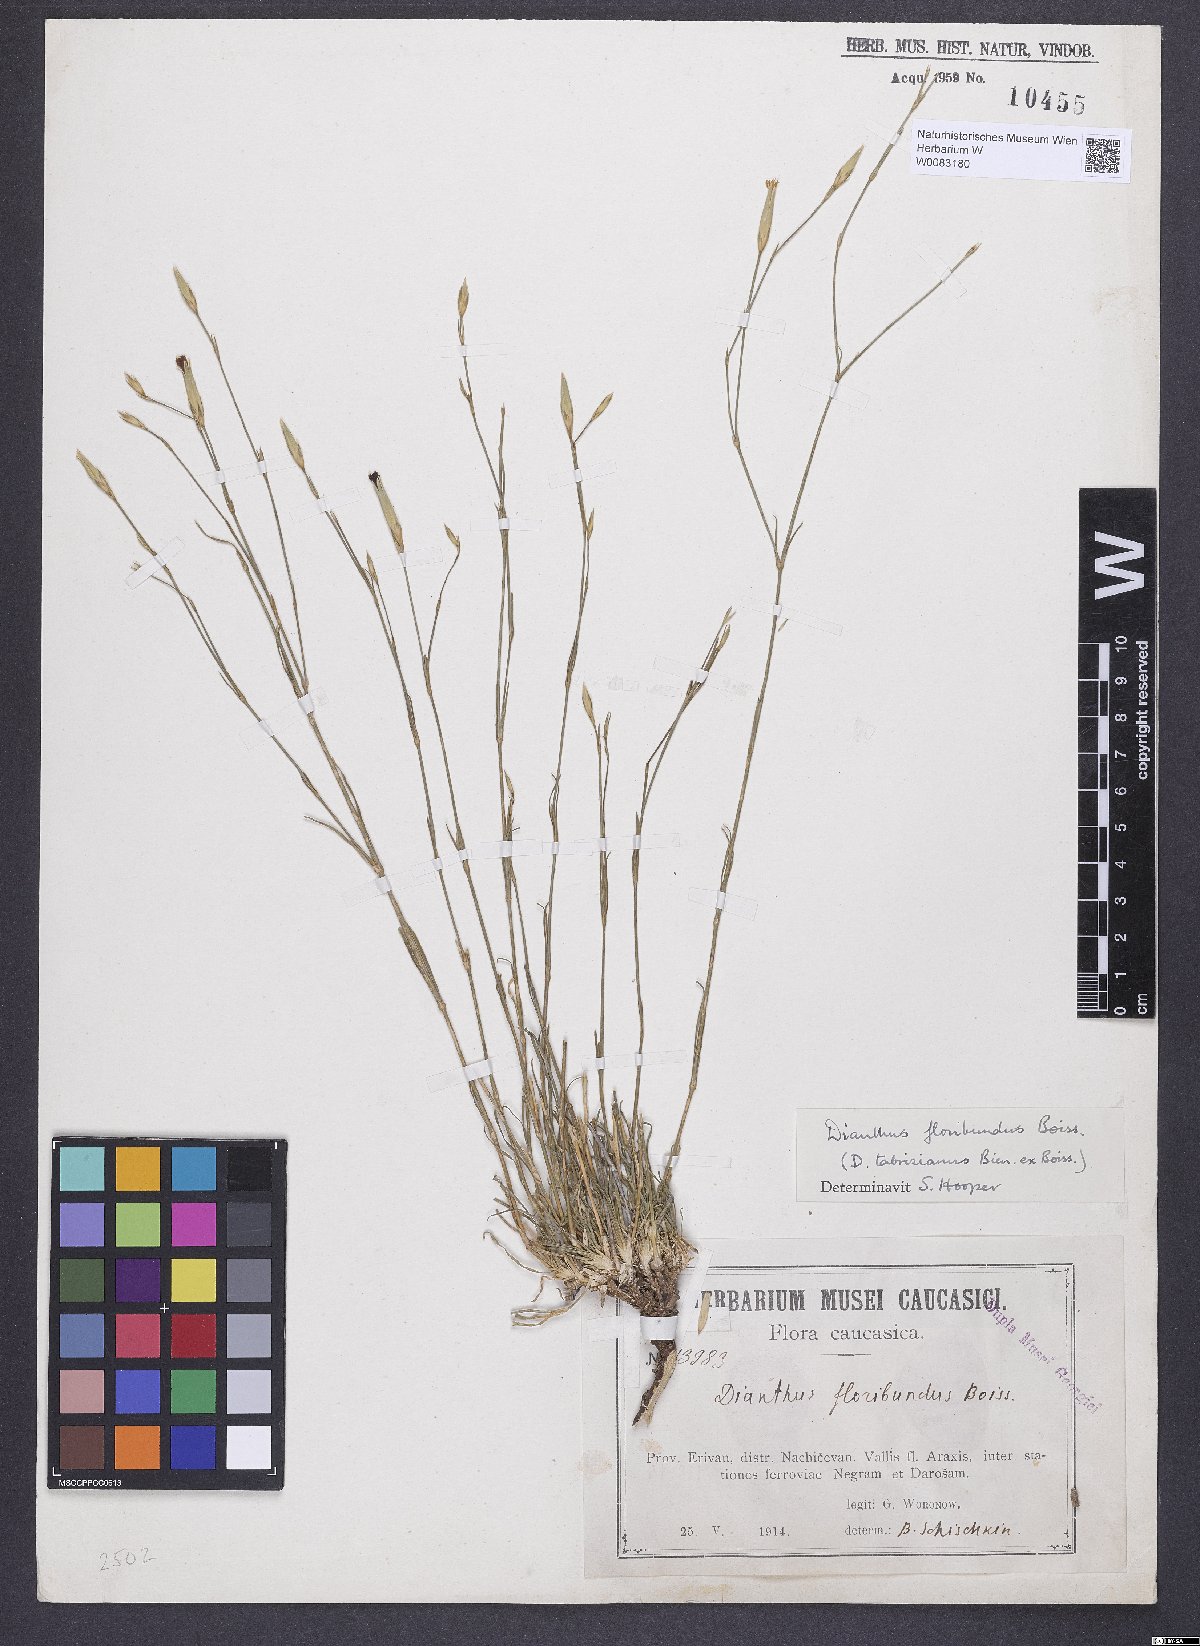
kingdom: Plantae
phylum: Tracheophyta
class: Magnoliopsida
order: Caryophyllales
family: Caryophyllaceae
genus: Dianthus
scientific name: Dianthus floribundus
